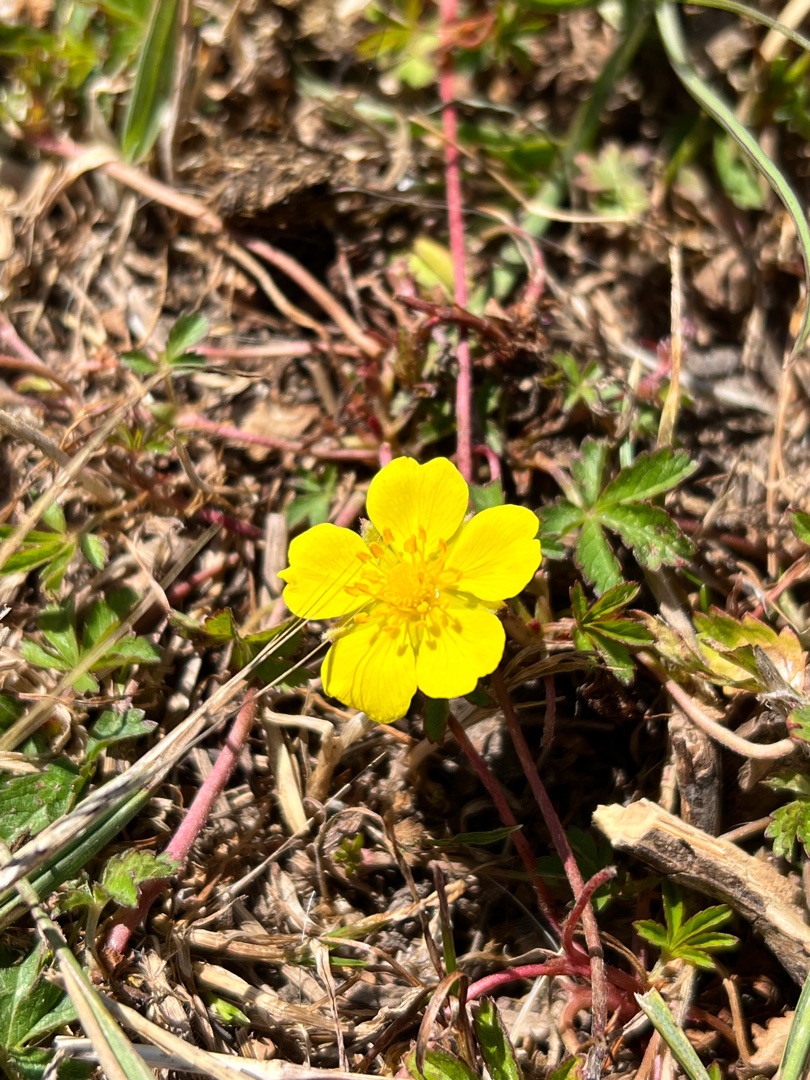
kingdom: Plantae
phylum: Tracheophyta
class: Magnoliopsida
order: Rosales
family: Rosaceae
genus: Potentilla
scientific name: Potentilla reptans
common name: Krybende potentil
